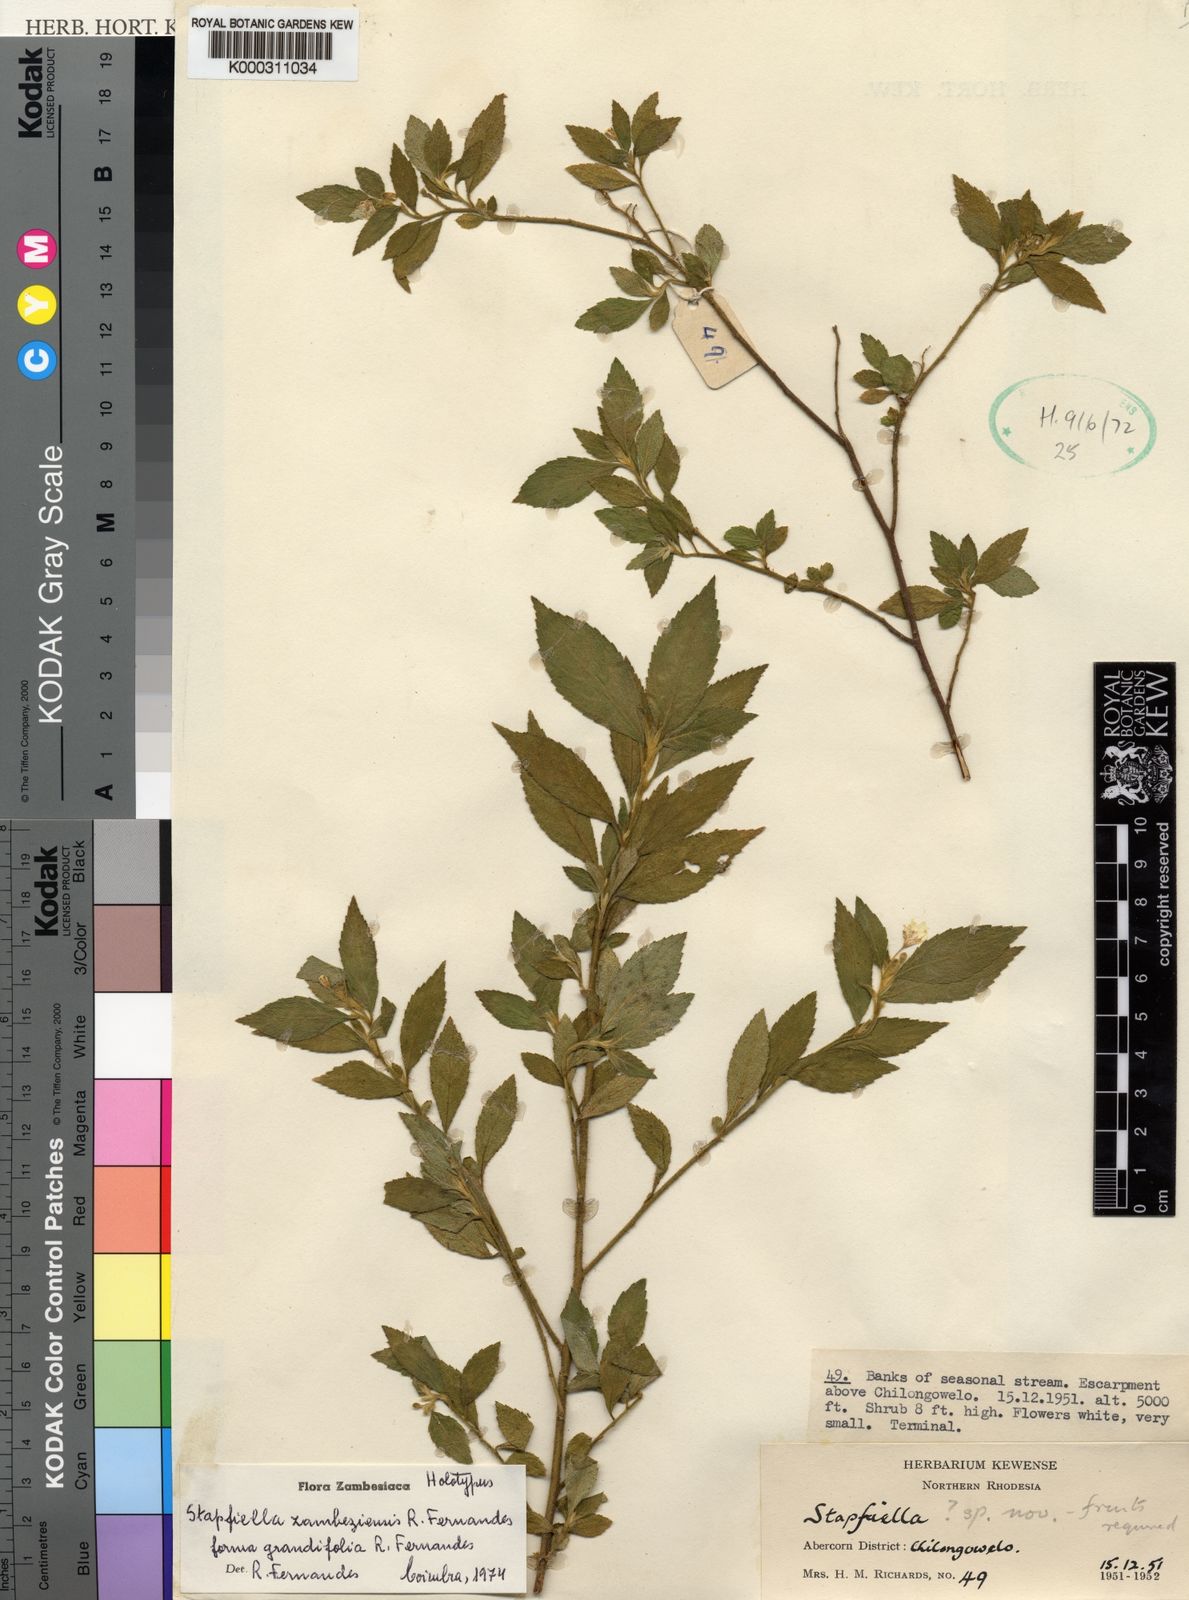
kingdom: Plantae
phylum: Tracheophyta
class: Magnoliopsida
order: Malpighiales
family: Turneraceae
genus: Stapfiella
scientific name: Stapfiella zambesiensis
